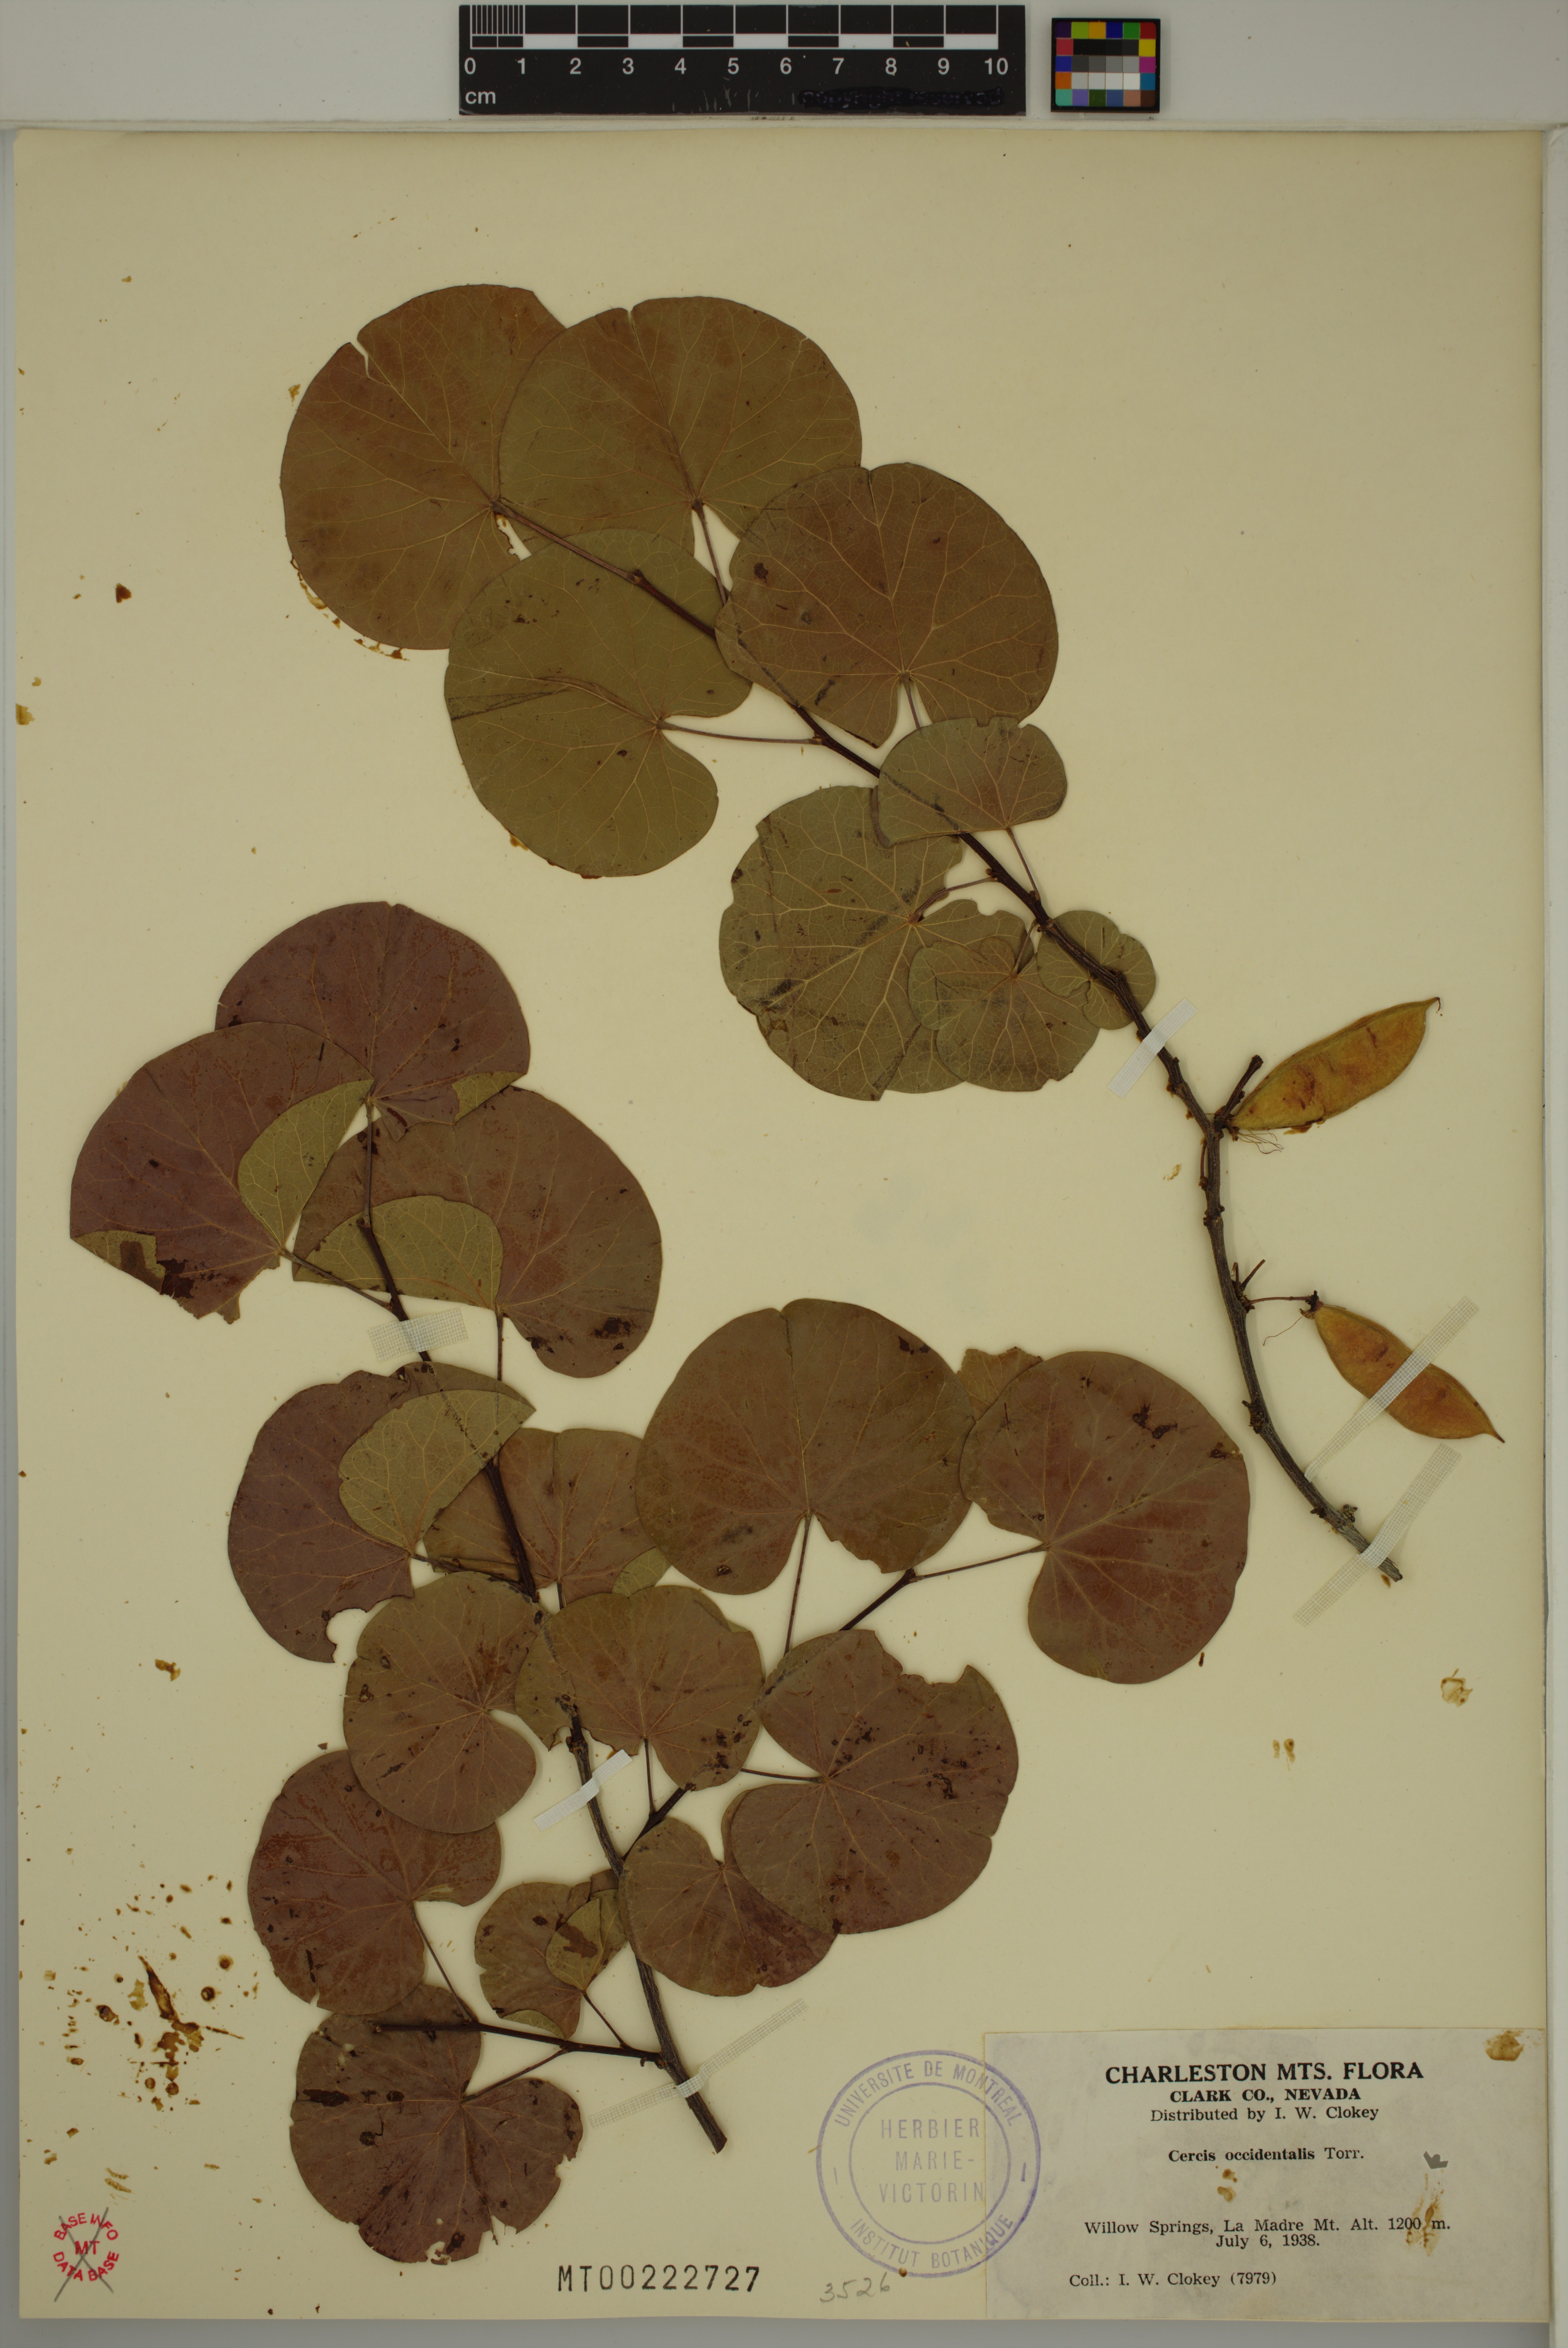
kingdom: Plantae
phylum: Tracheophyta
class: Magnoliopsida
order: Fabales
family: Fabaceae
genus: Cercis
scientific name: Cercis occidentalis
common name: California redbud
